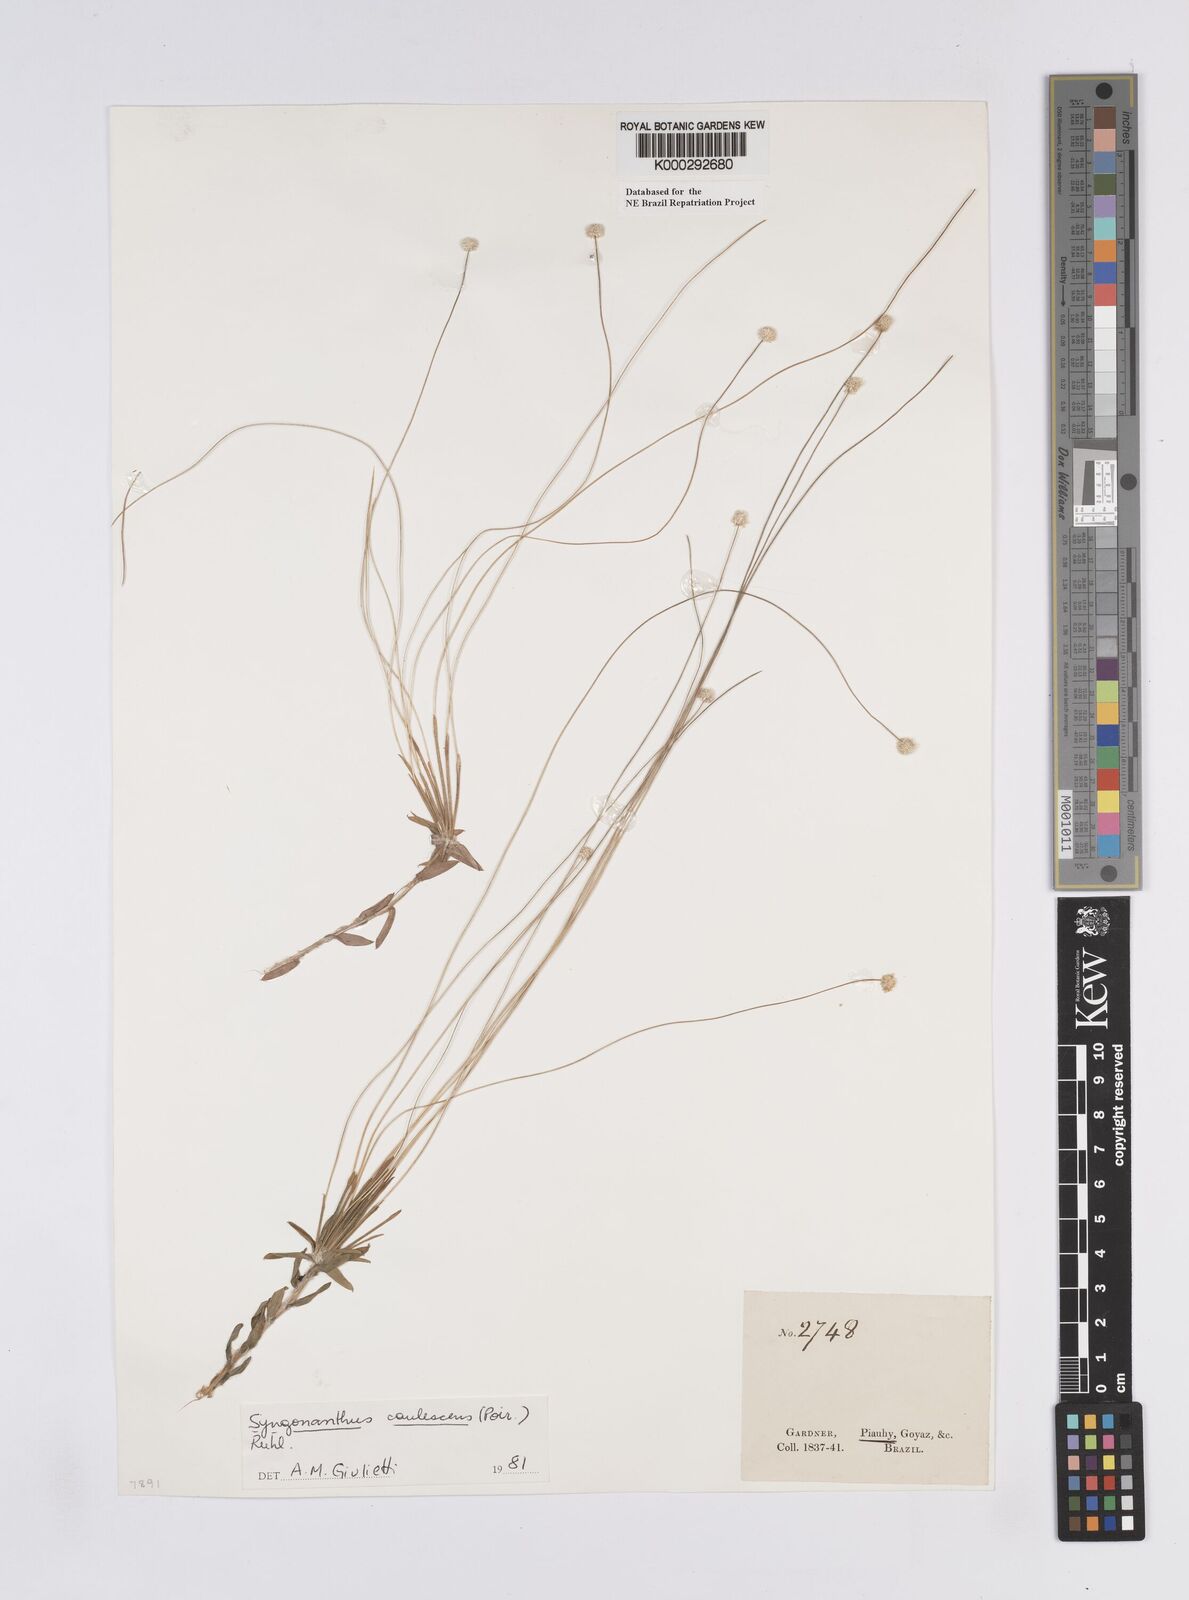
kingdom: Plantae
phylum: Tracheophyta
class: Liliopsida
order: Poales
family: Eriocaulaceae
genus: Syngonanthus
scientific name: Syngonanthus caulescens
